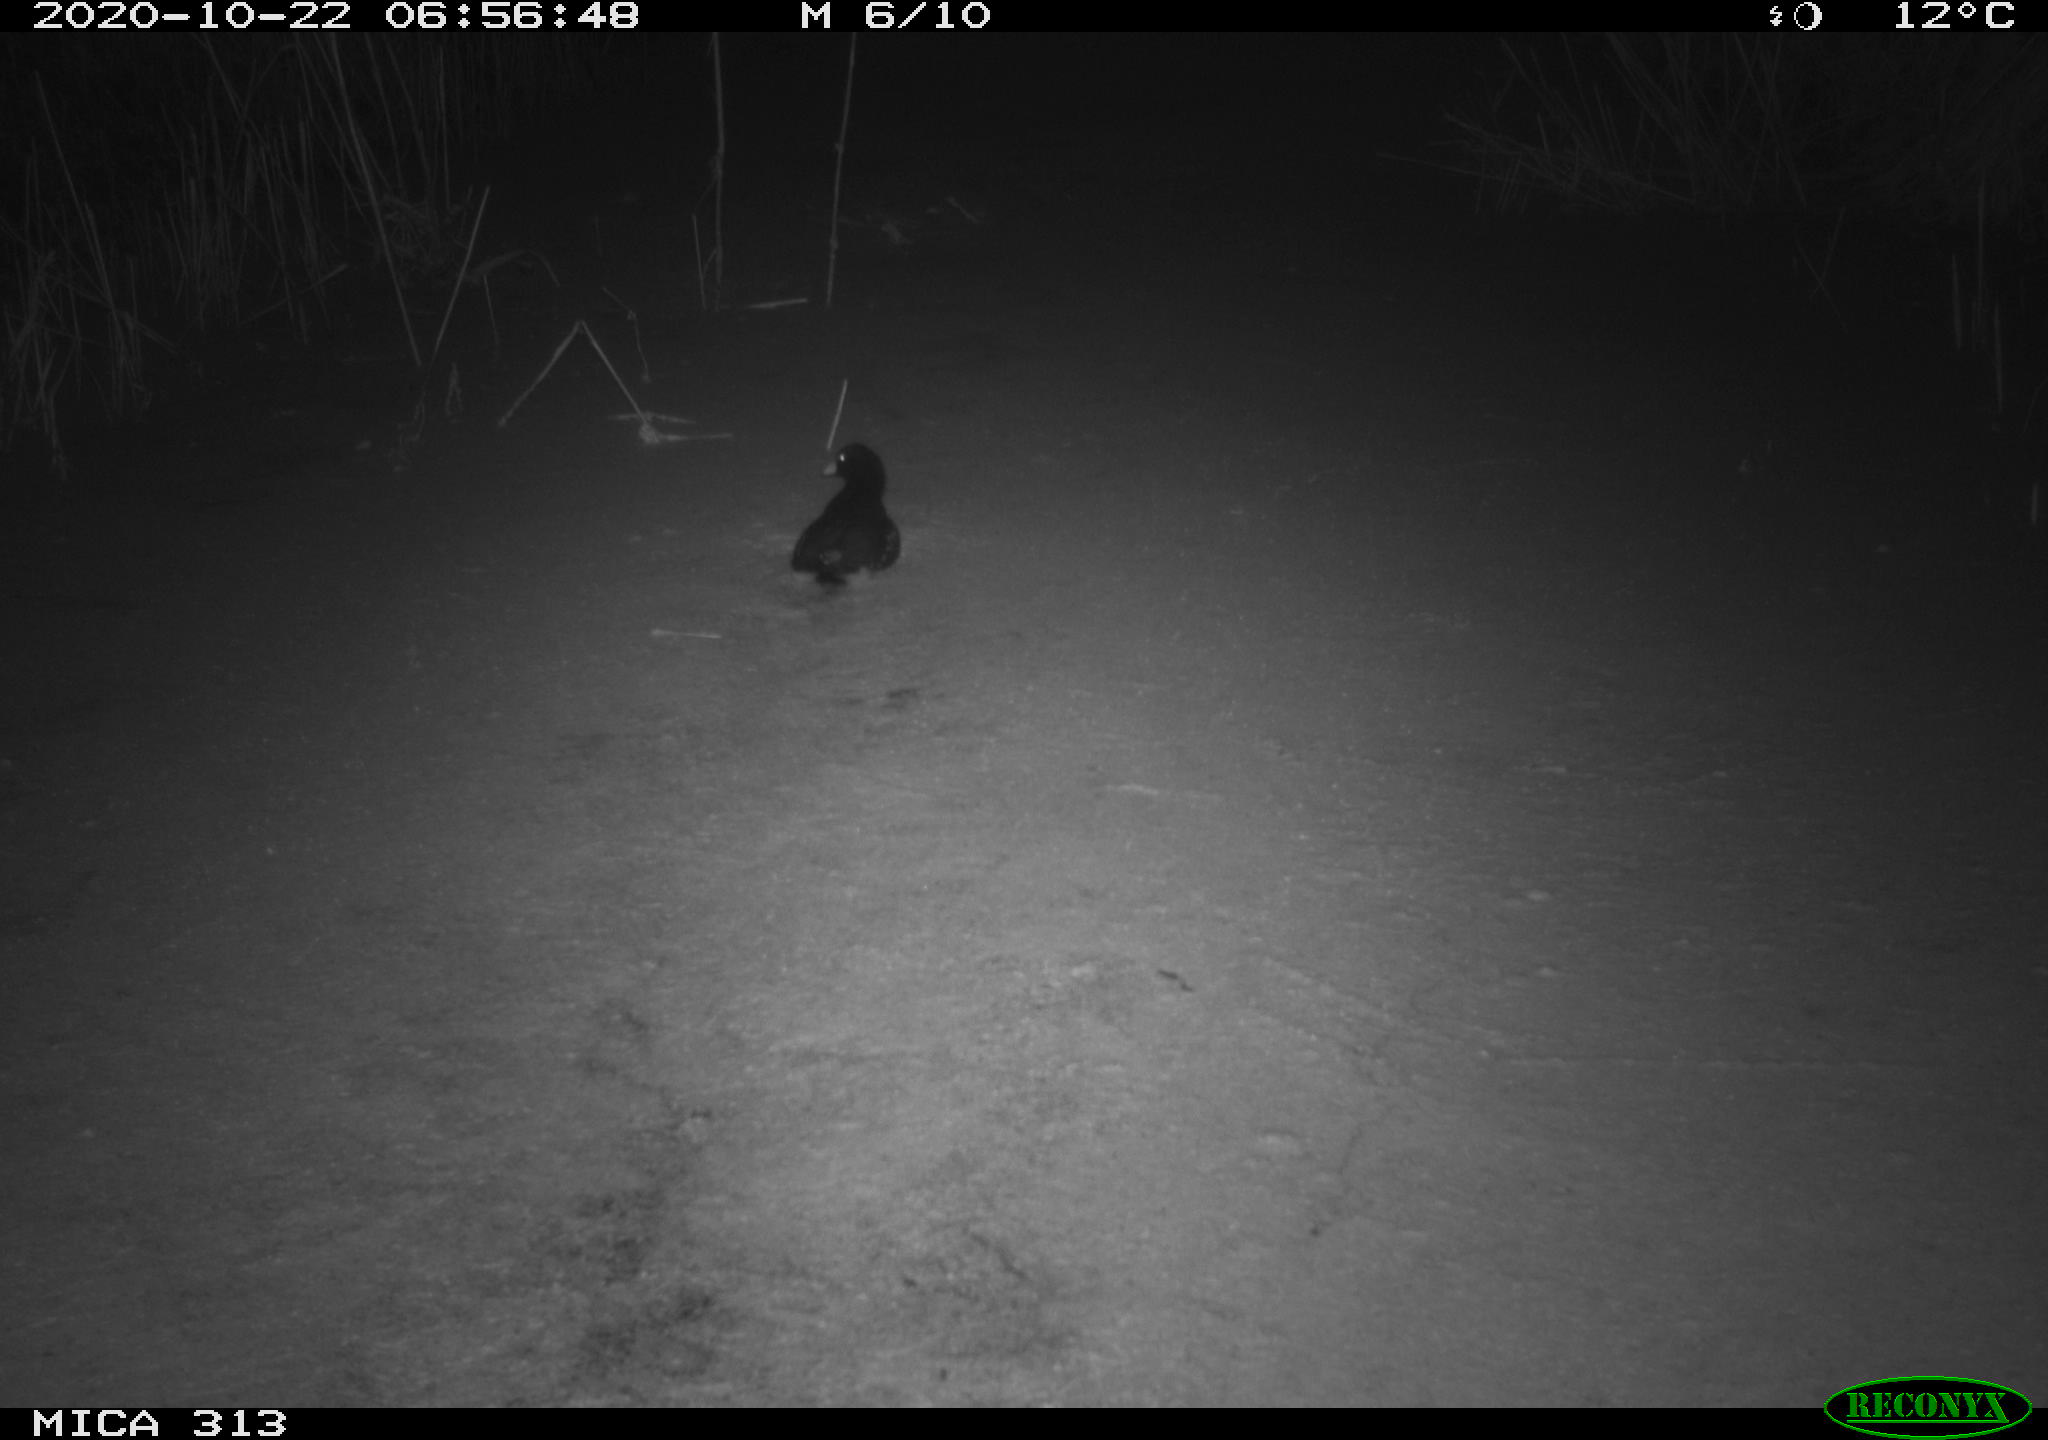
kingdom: Animalia
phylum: Chordata
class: Aves
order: Gruiformes
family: Rallidae
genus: Fulica
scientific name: Fulica atra
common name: Eurasian coot
